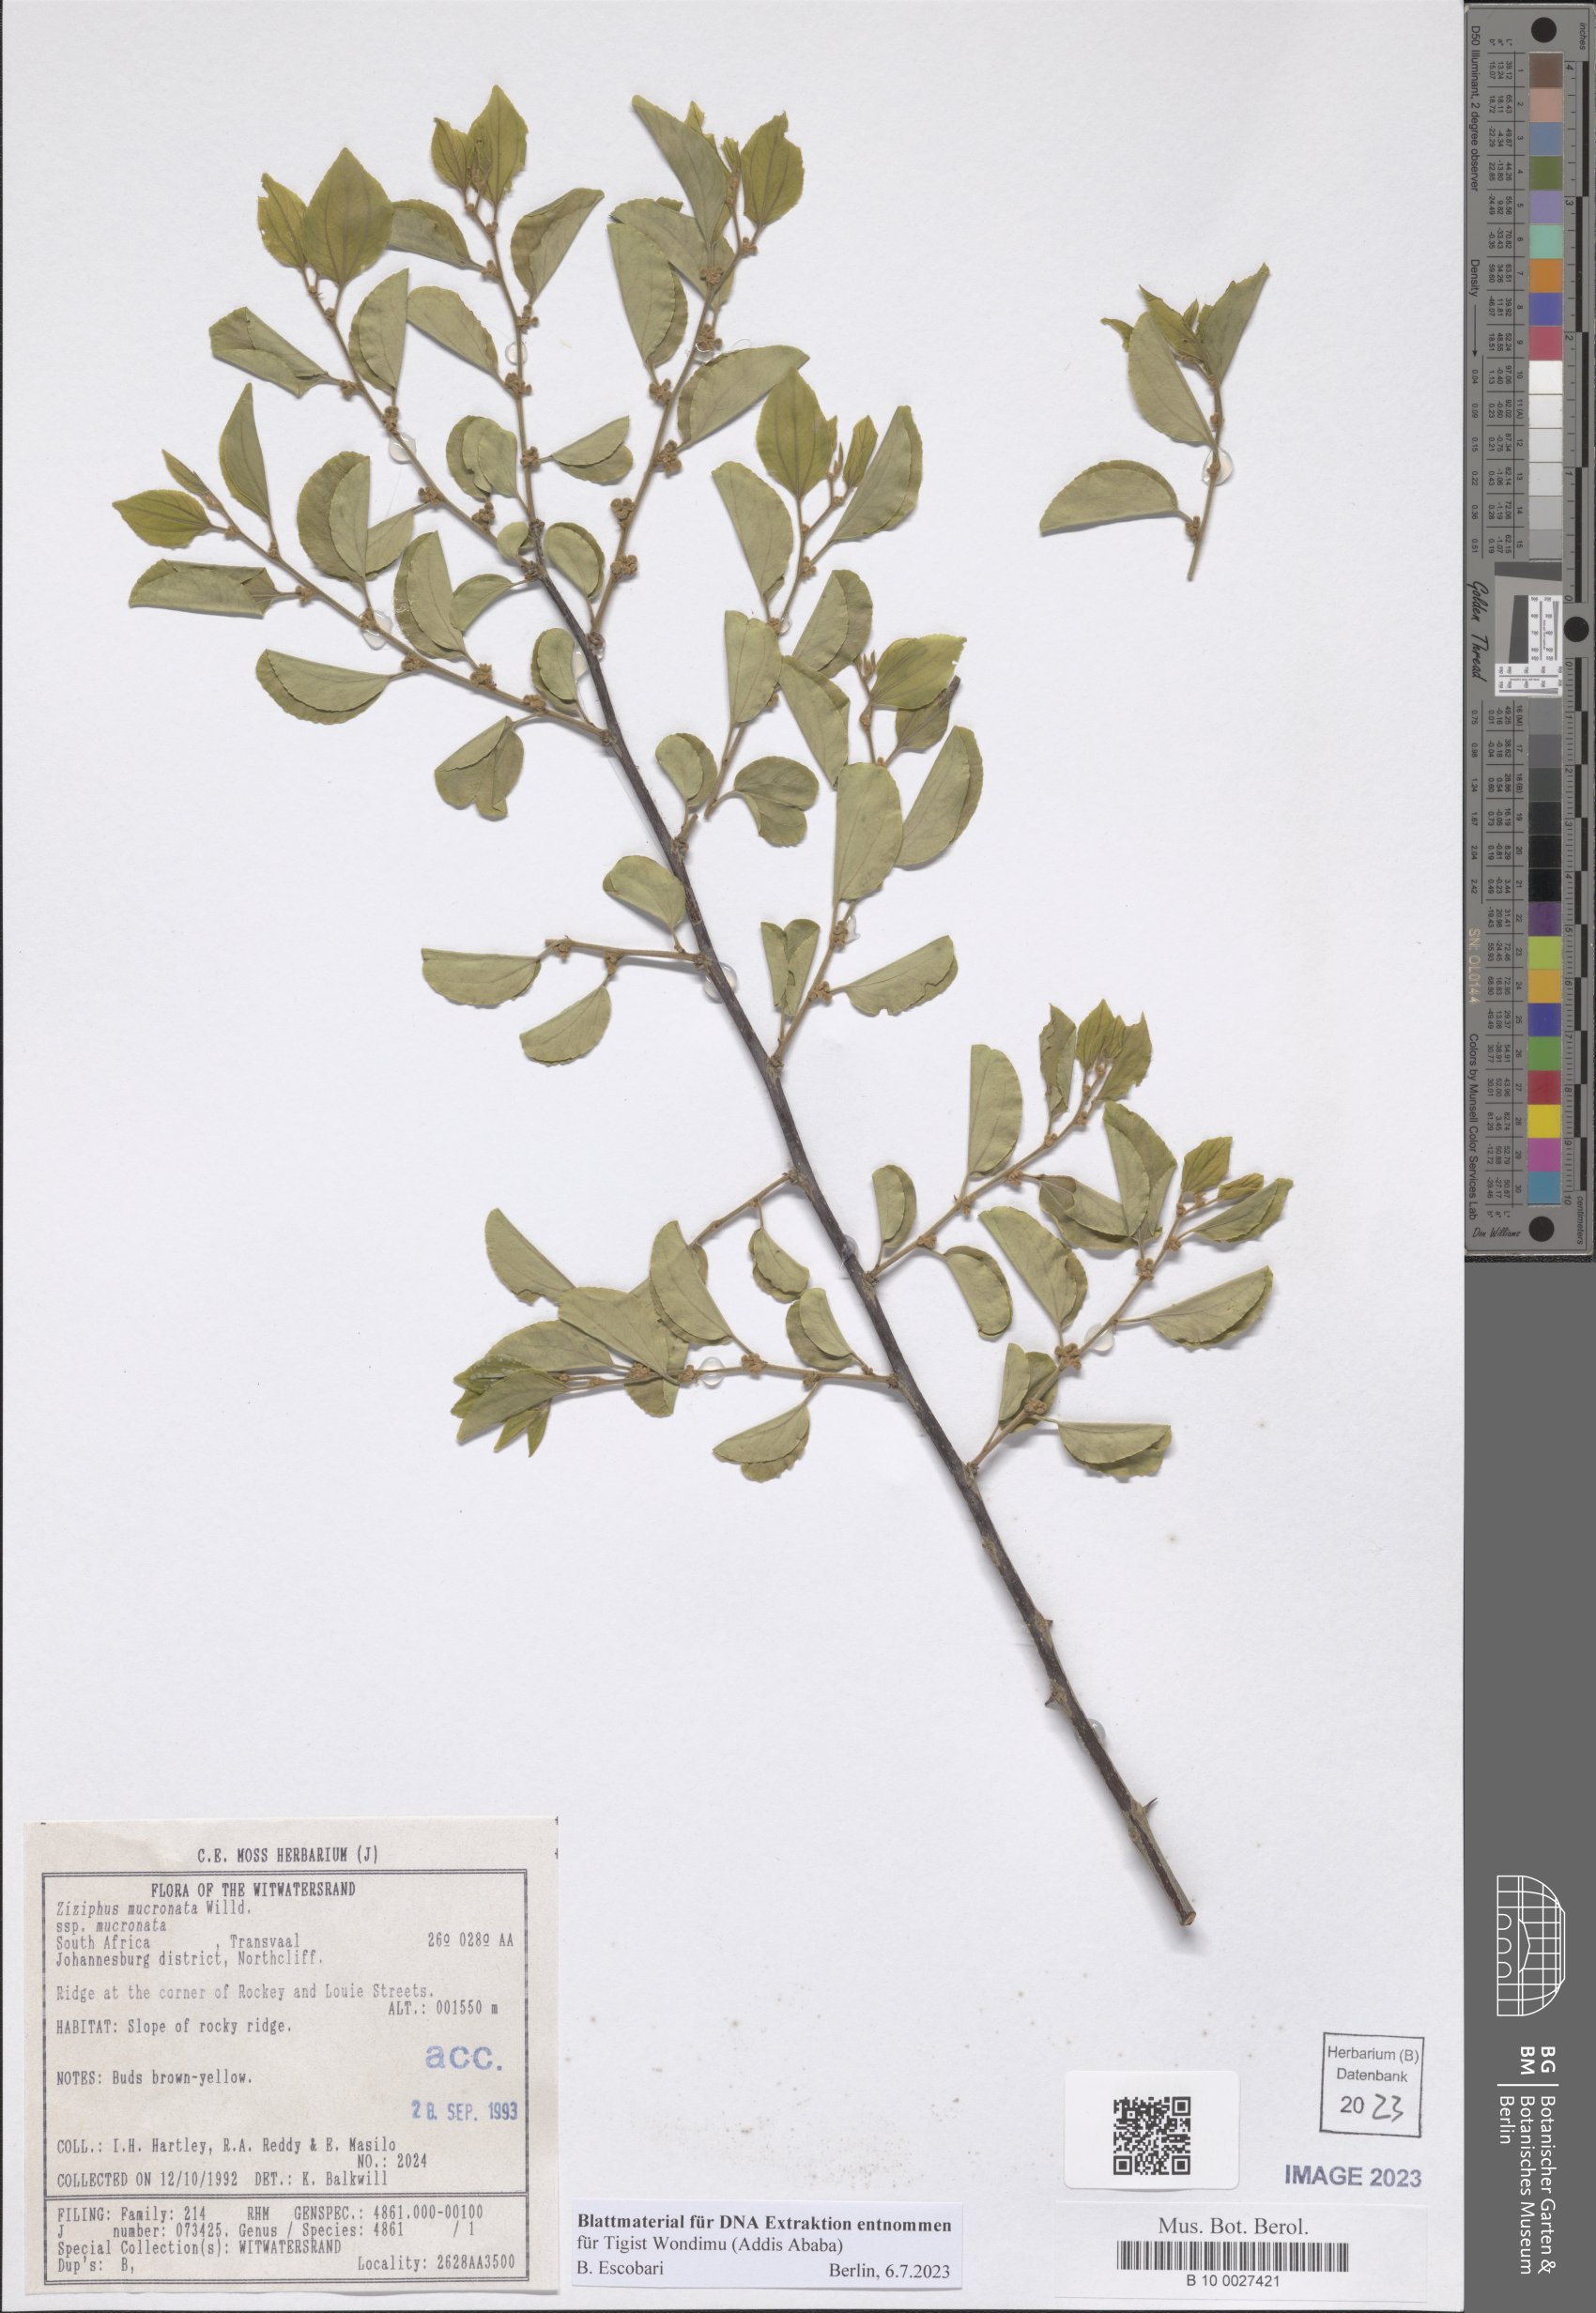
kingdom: Plantae
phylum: Tracheophyta
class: Magnoliopsida
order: Rosales
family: Rhamnaceae
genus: Ziziphus
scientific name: Ziziphus mucronata
